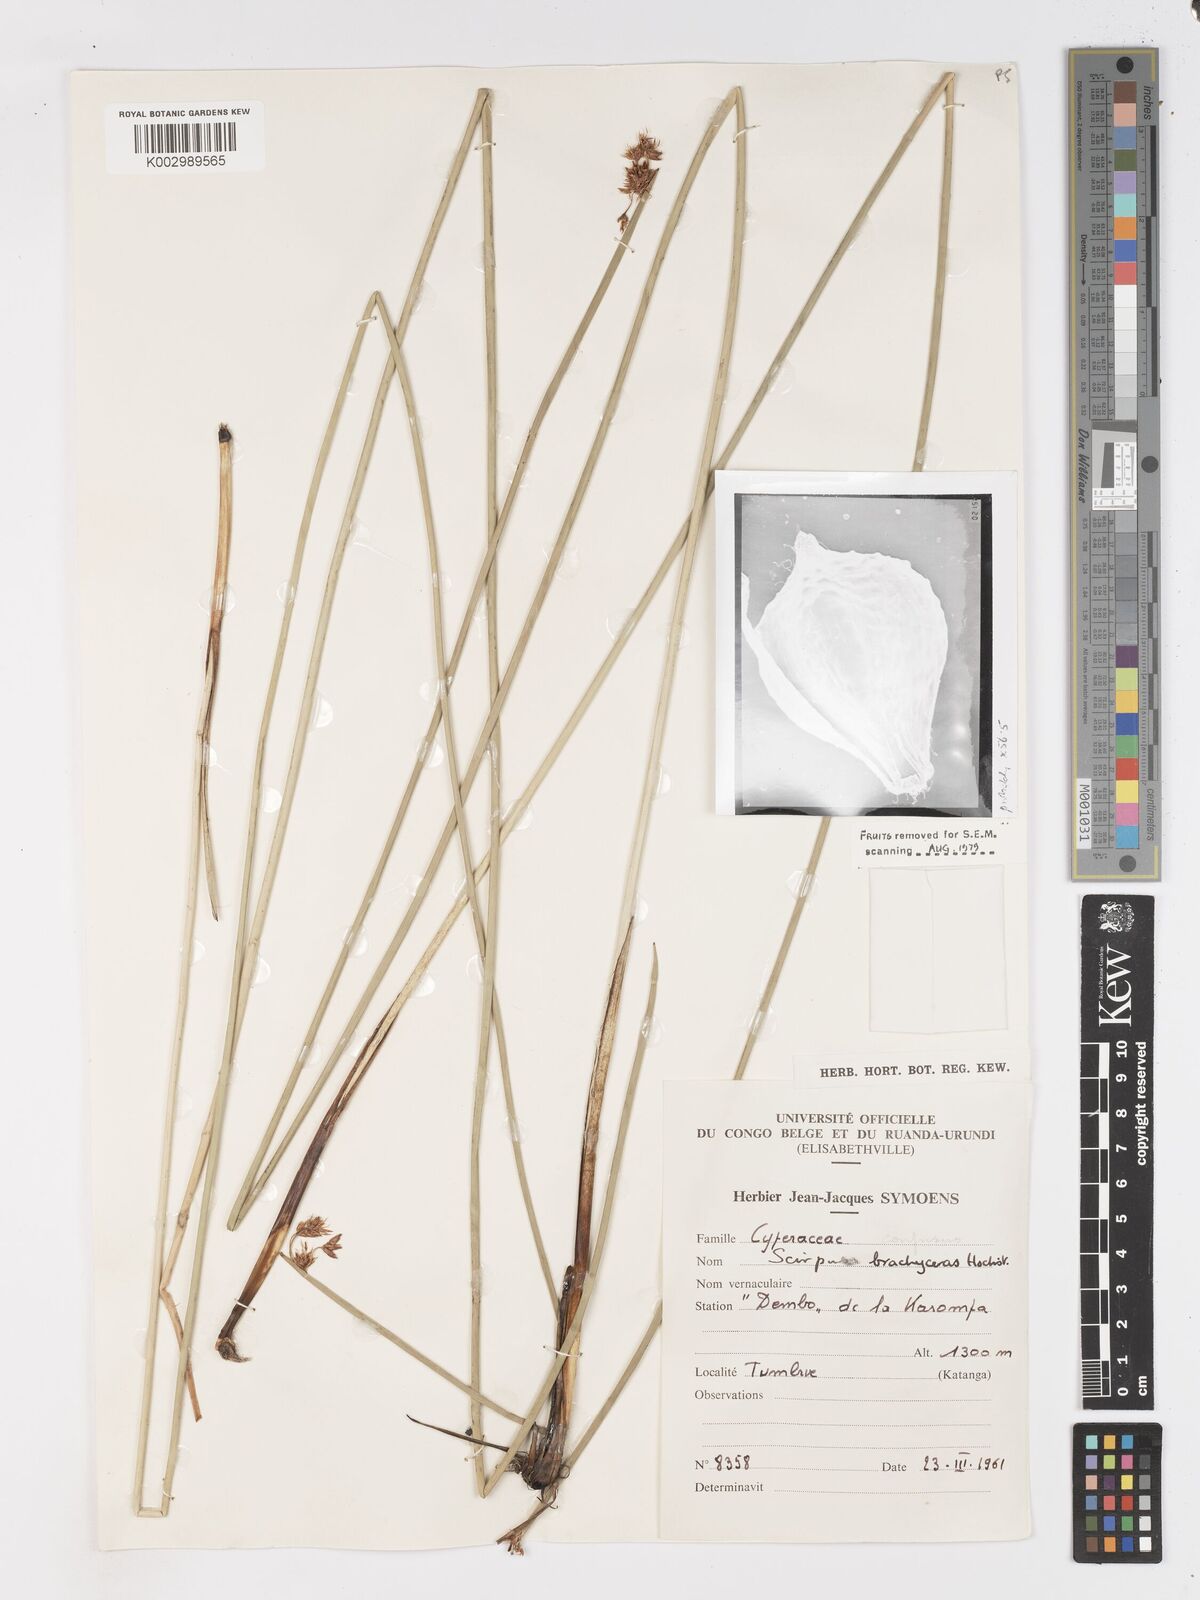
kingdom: Plantae
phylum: Tracheophyta
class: Liliopsida
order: Poales
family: Cyperaceae
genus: Schoenoplectiella
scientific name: Schoenoplectiella corymbosa
